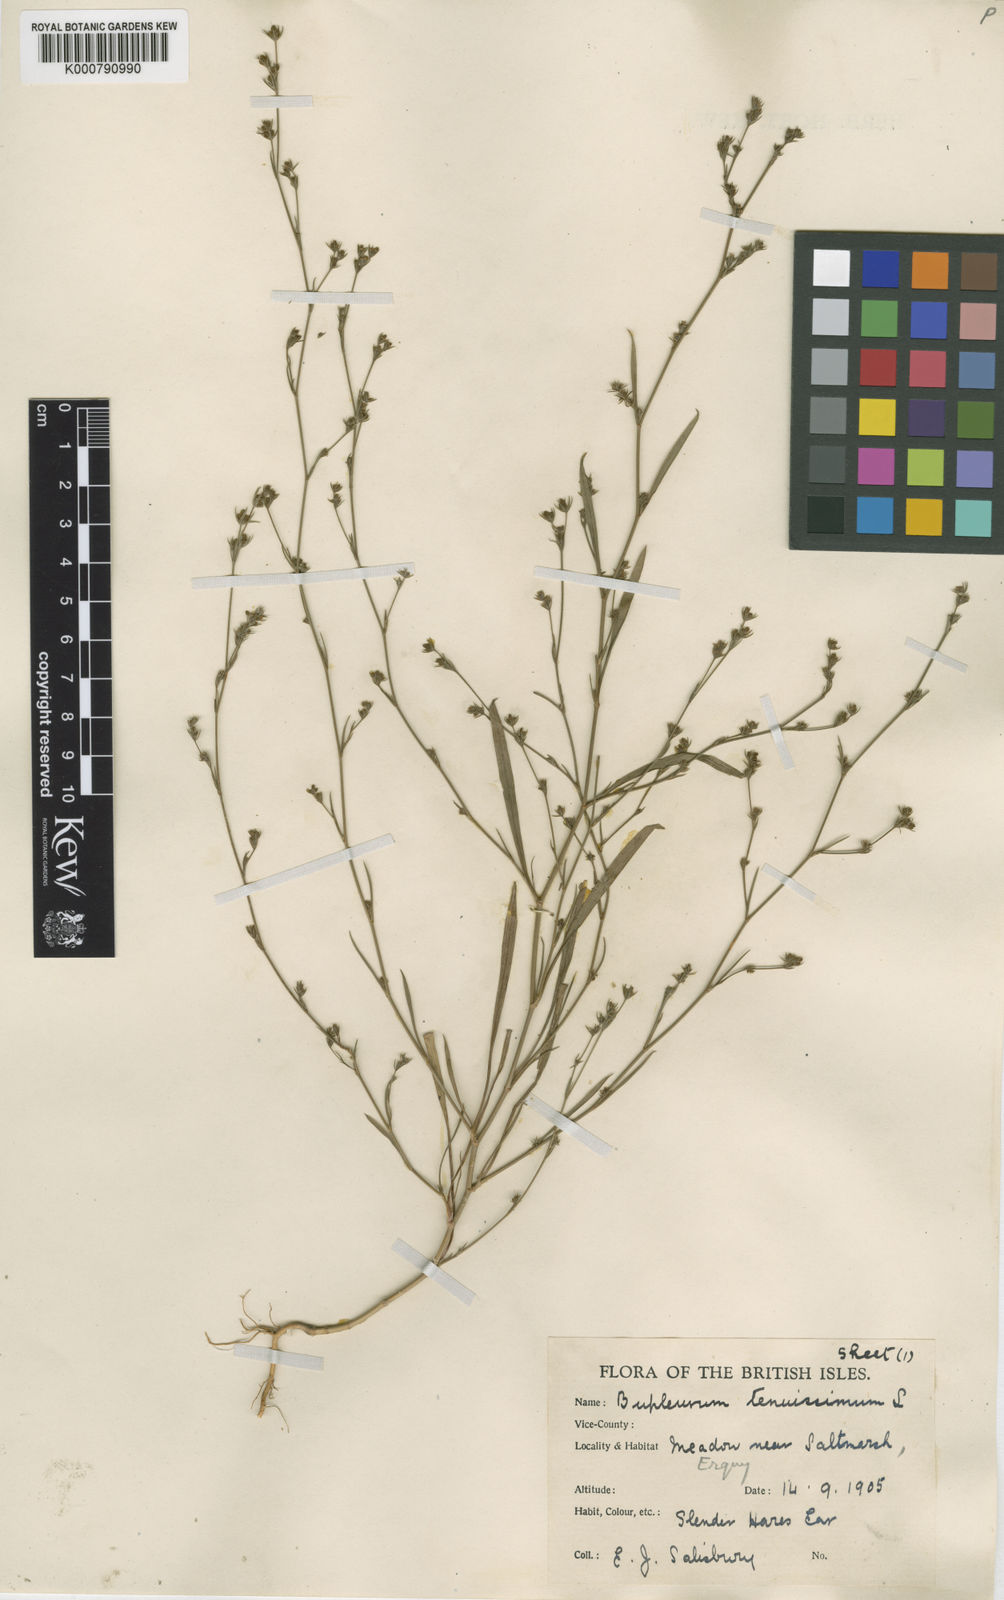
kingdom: Plantae
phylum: Tracheophyta
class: Magnoliopsida
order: Apiales
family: Apiaceae
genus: Bupleurum
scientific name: Bupleurum tenuissimum
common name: Slender hare's-ear
